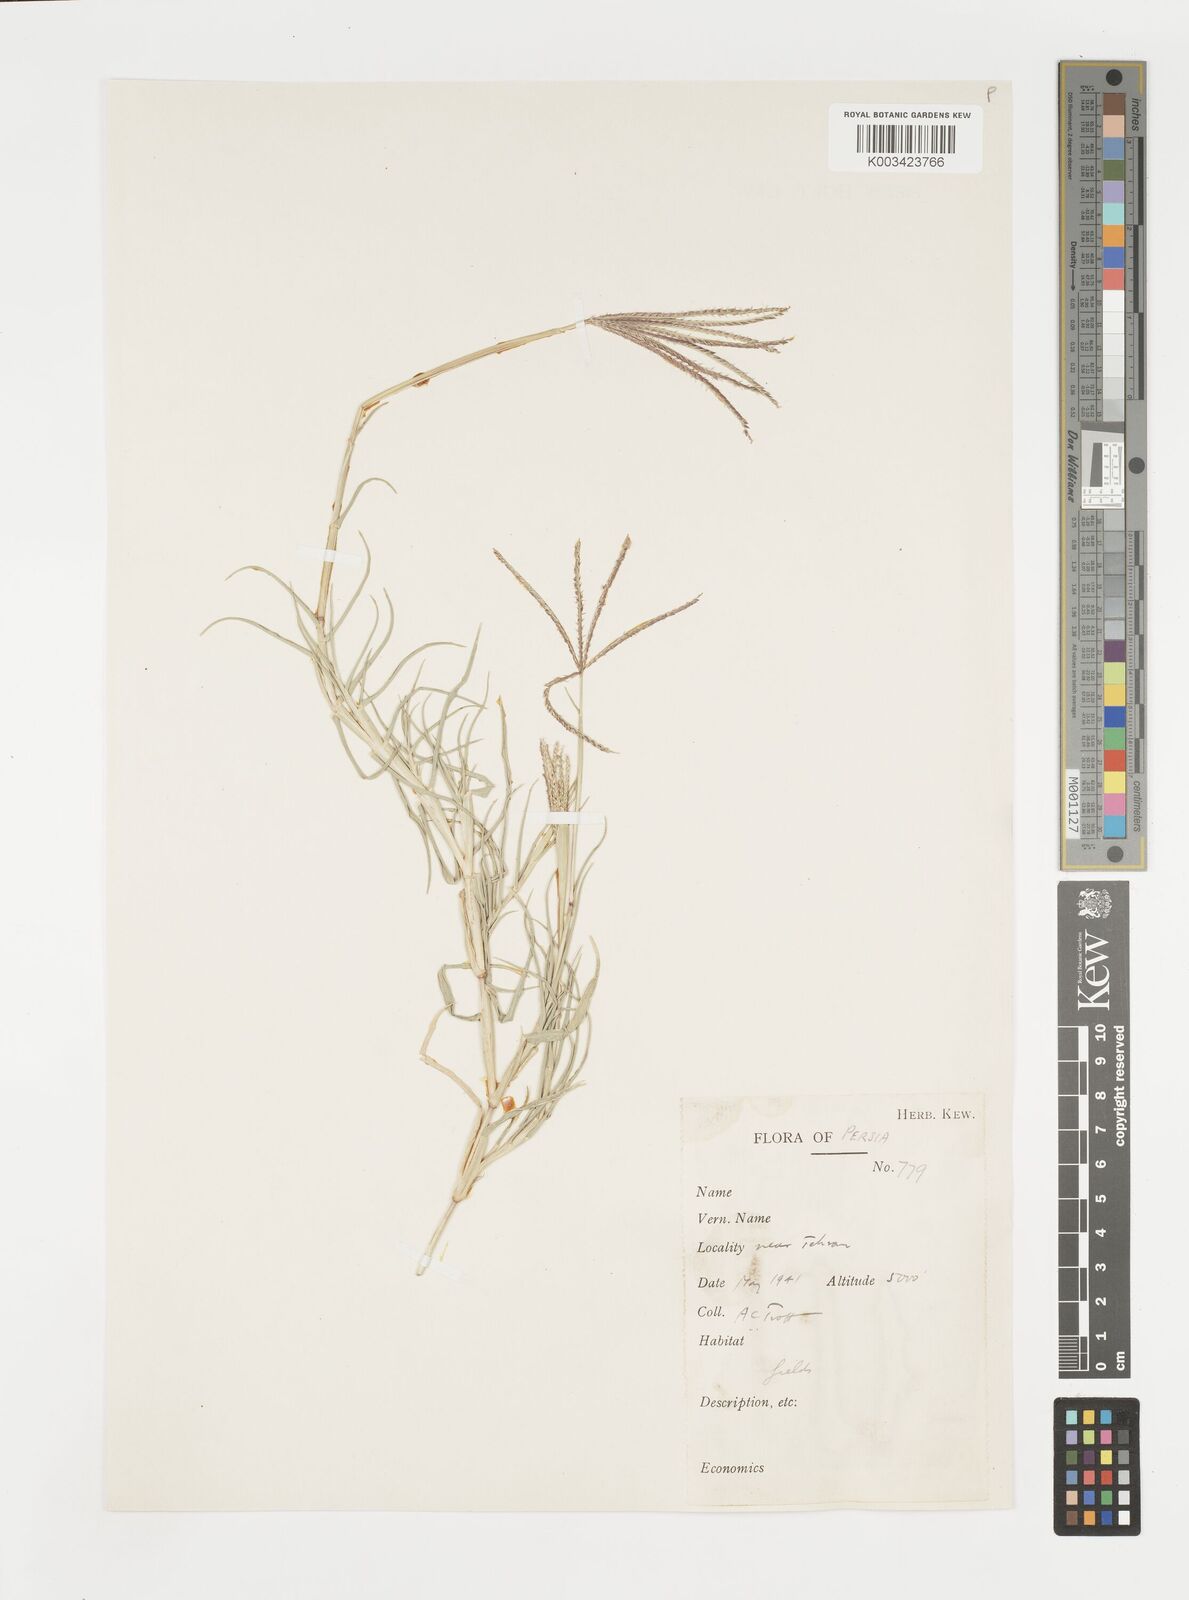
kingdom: Plantae
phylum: Tracheophyta
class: Liliopsida
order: Poales
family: Poaceae
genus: Cynodon
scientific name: Cynodon dactylon
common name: Bermuda grass
